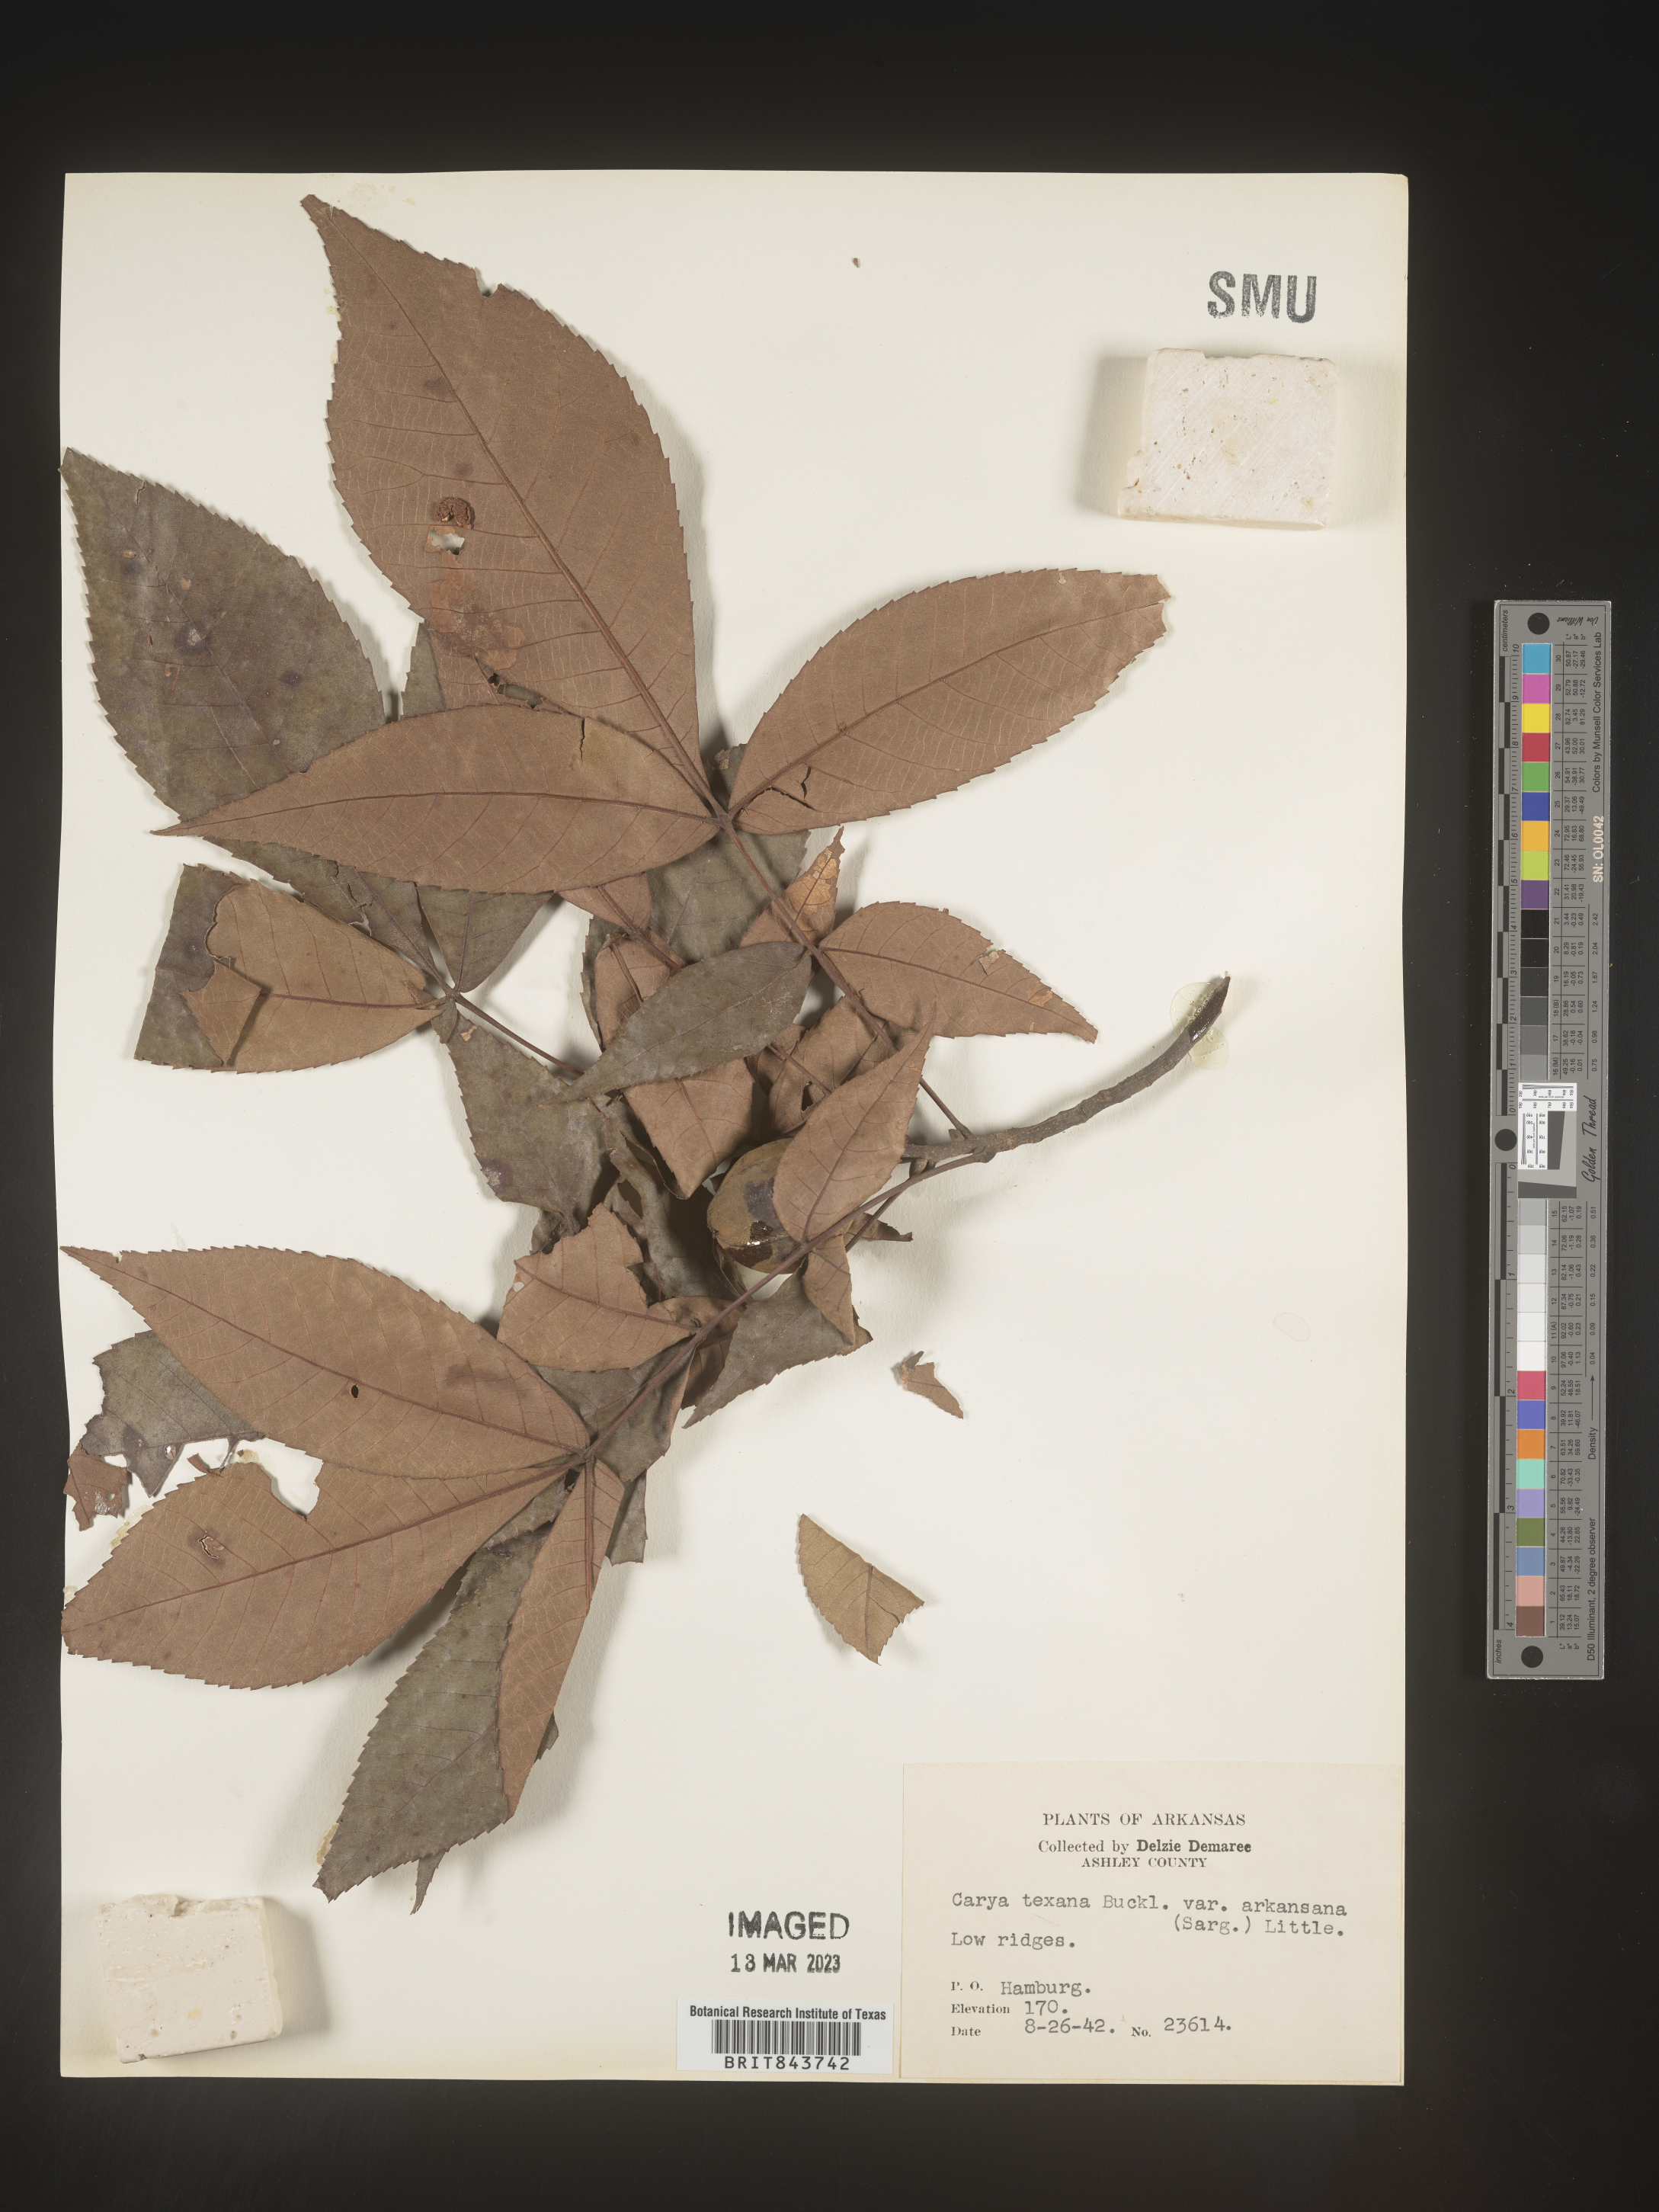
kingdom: Plantae
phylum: Tracheophyta
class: Magnoliopsida
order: Fagales
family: Juglandaceae
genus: Carya
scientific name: Carya texana
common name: Black hickory
